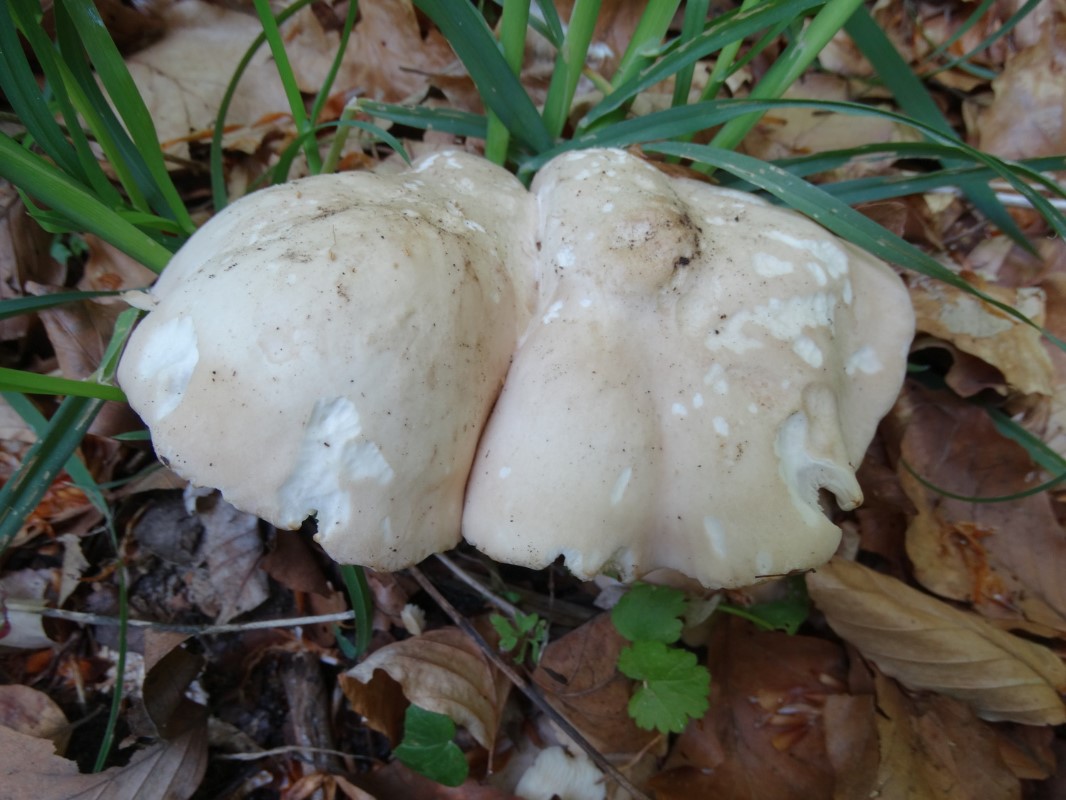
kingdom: Fungi
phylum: Basidiomycota
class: Agaricomycetes
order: Agaricales
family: Lyophyllaceae
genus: Calocybe
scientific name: Calocybe gambosa
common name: vårmusseron
